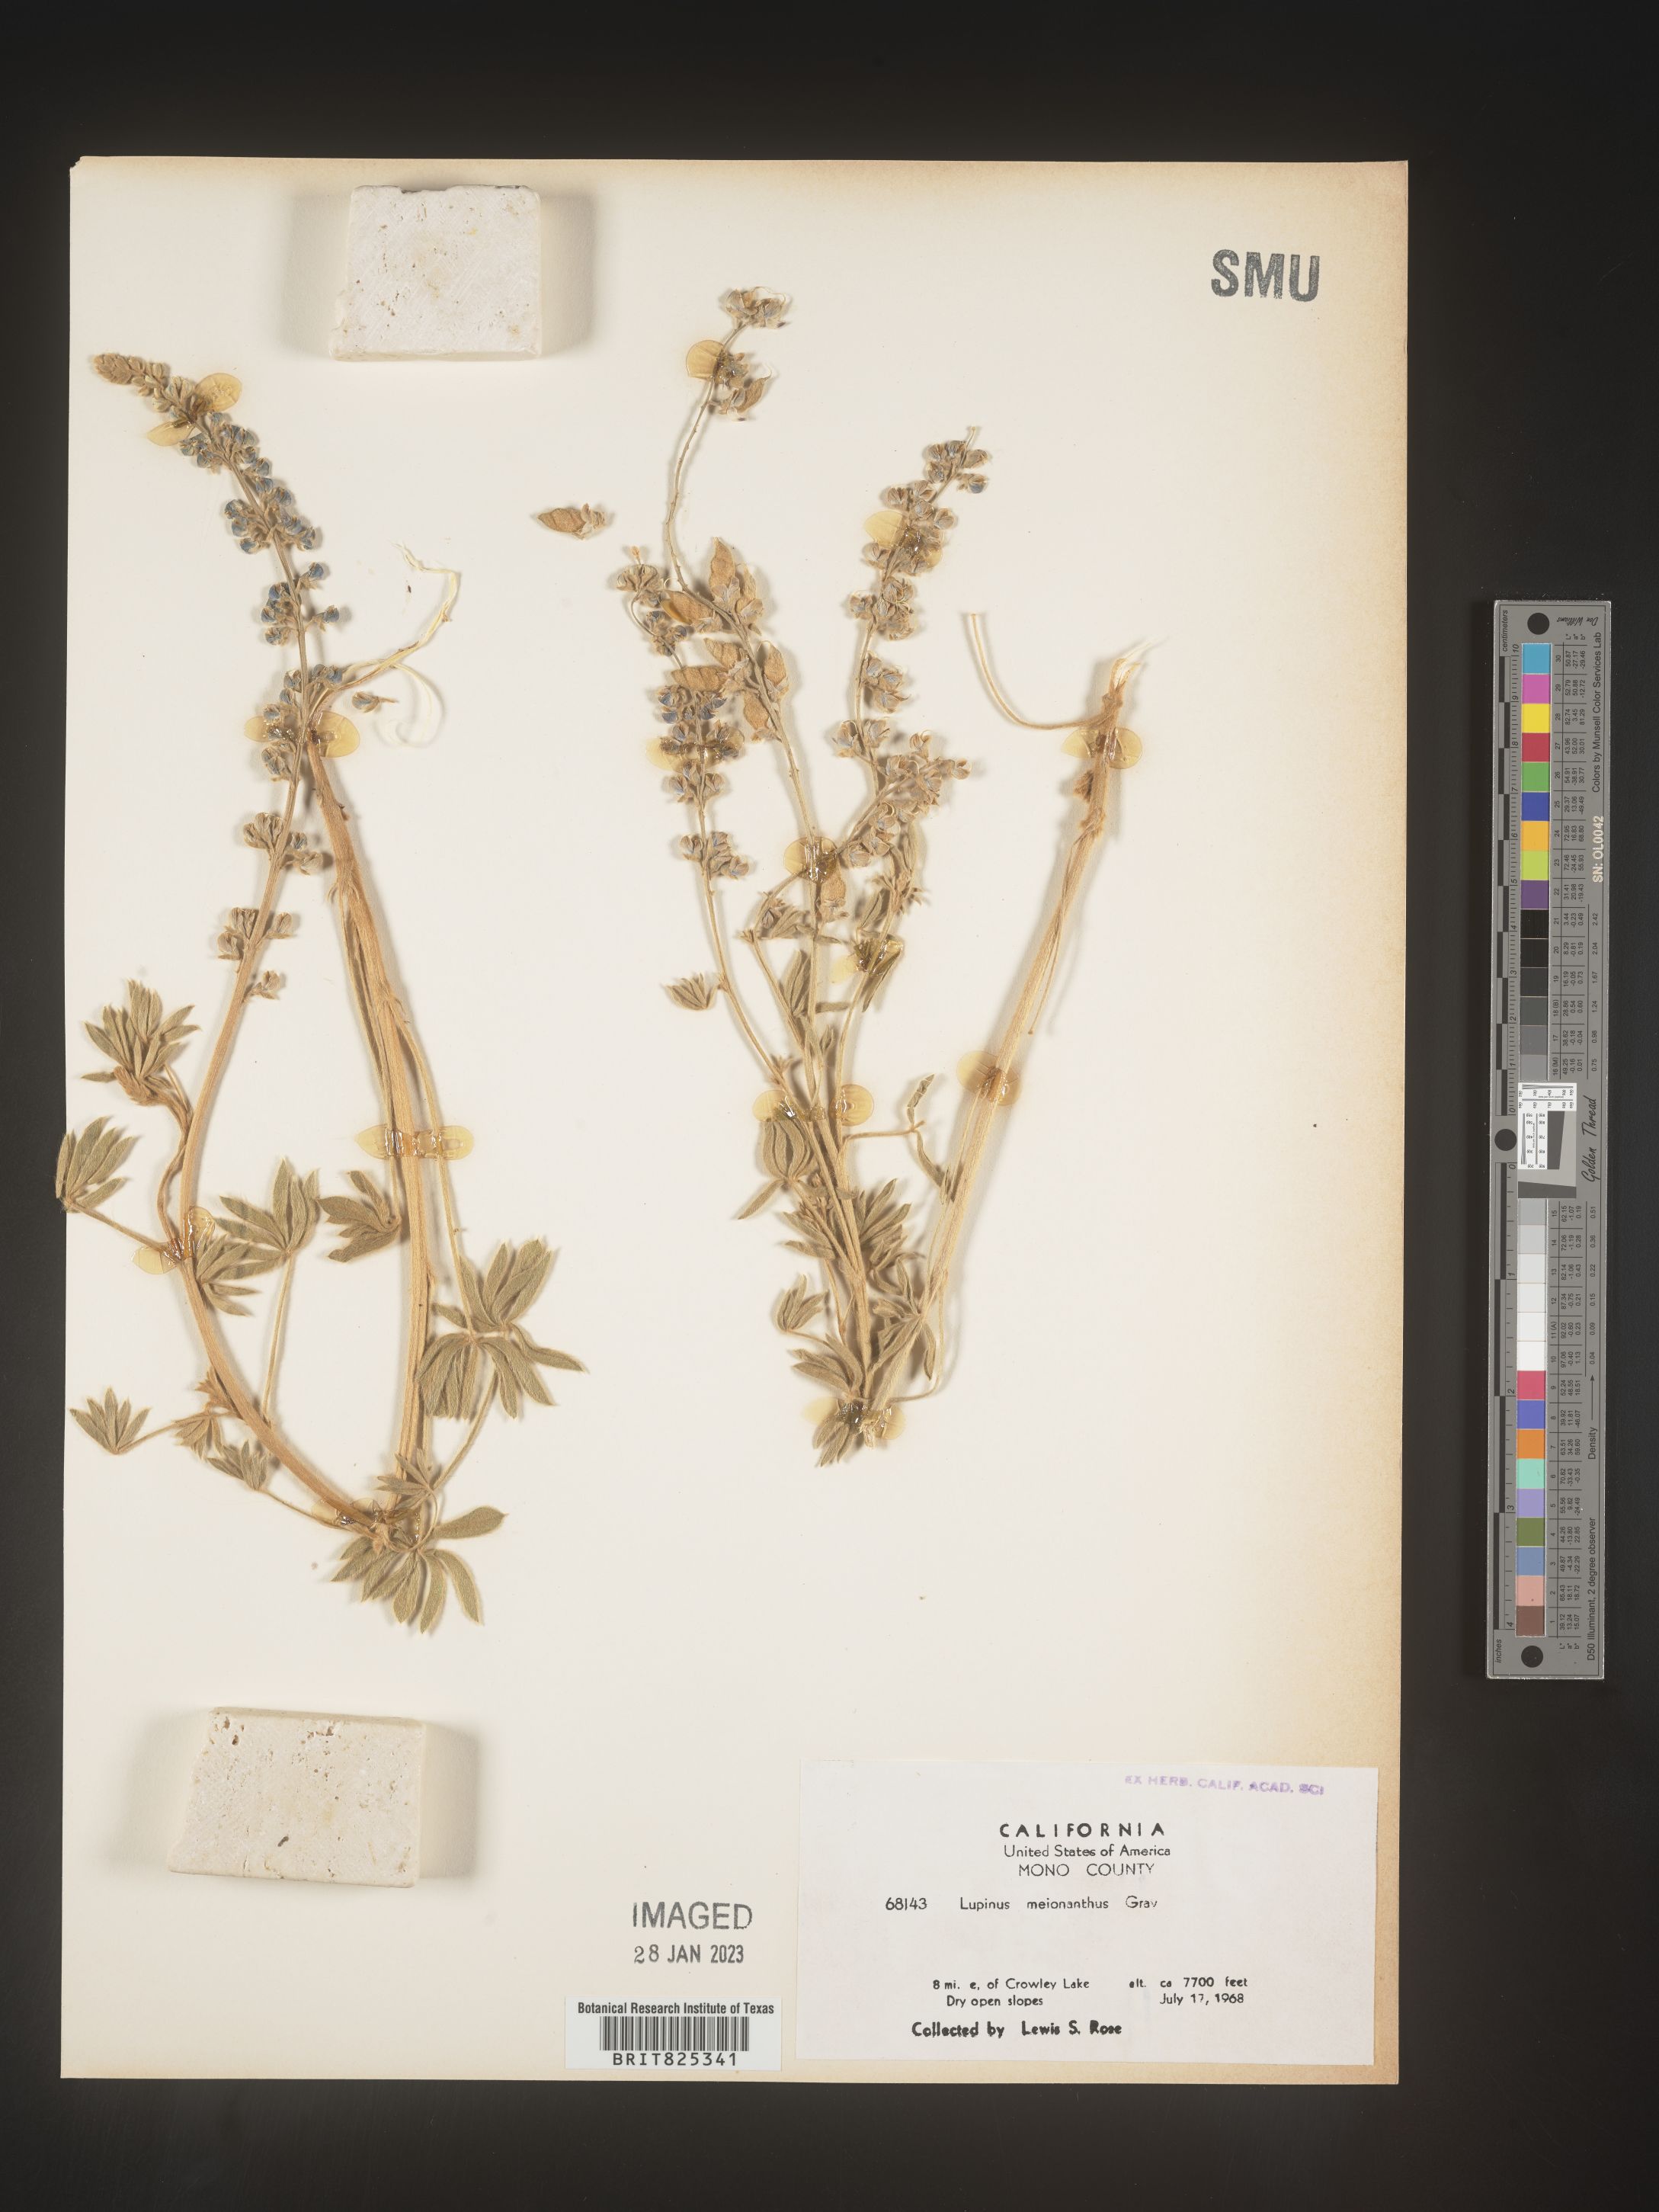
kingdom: Plantae
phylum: Tracheophyta
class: Magnoliopsida
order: Fabales
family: Fabaceae
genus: Lupinus
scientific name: Lupinus
